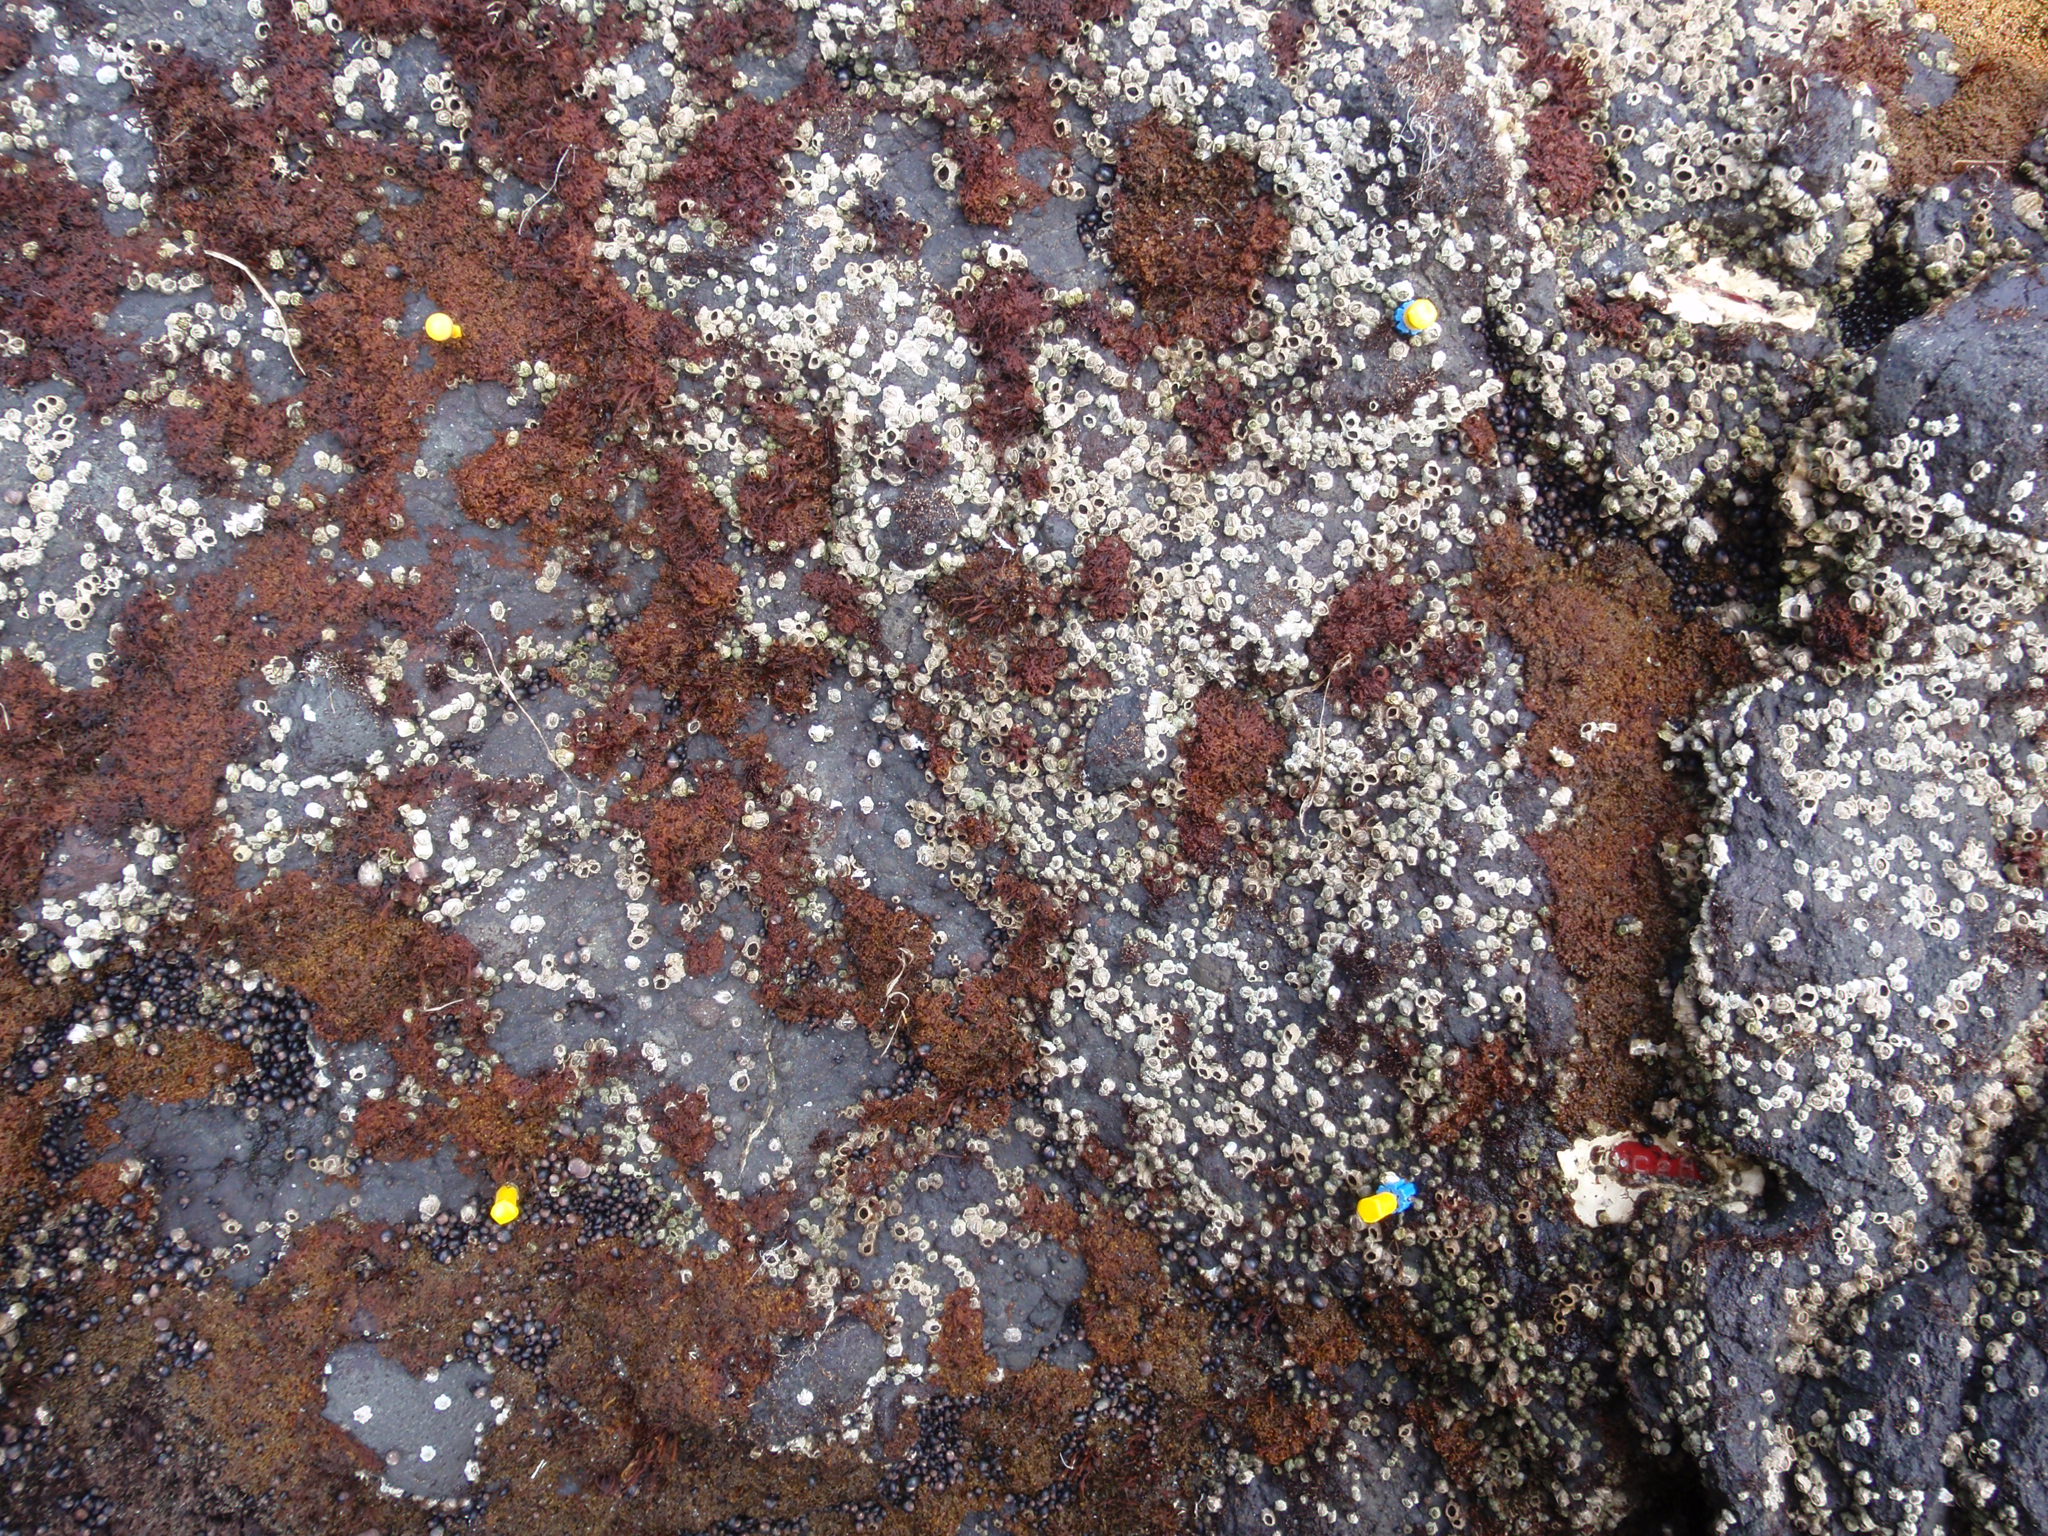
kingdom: Chromista
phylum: Ochrophyta
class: Phaeophyceae
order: Scytosiphonales
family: Scytosiphonaceae
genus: Analipus
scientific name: Analipus japonicus
